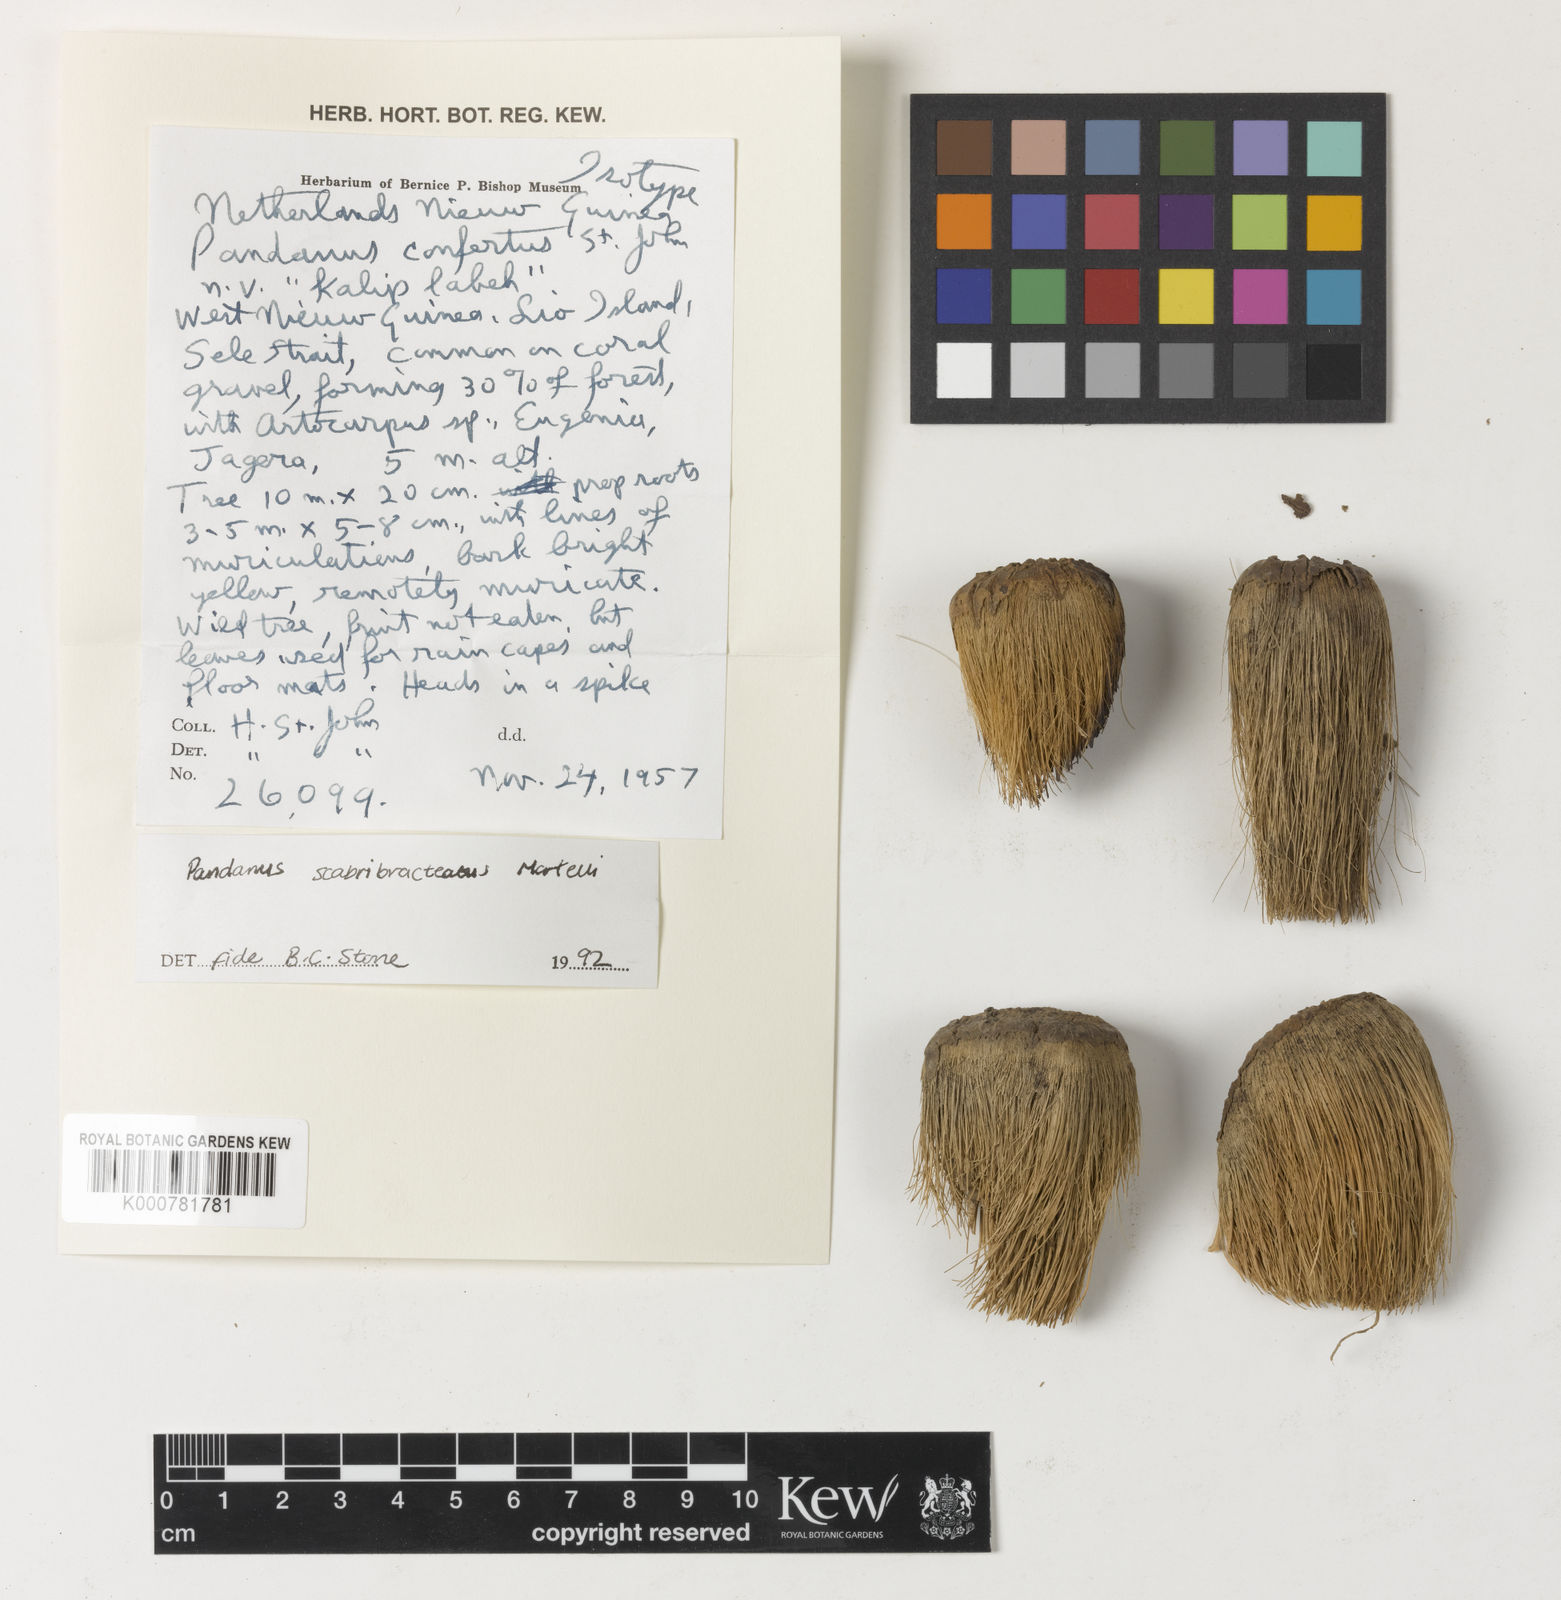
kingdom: Plantae
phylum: Tracheophyta
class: Liliopsida
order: Pandanales
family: Pandanaceae
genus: Pandanus
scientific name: Pandanus kaernbachii
